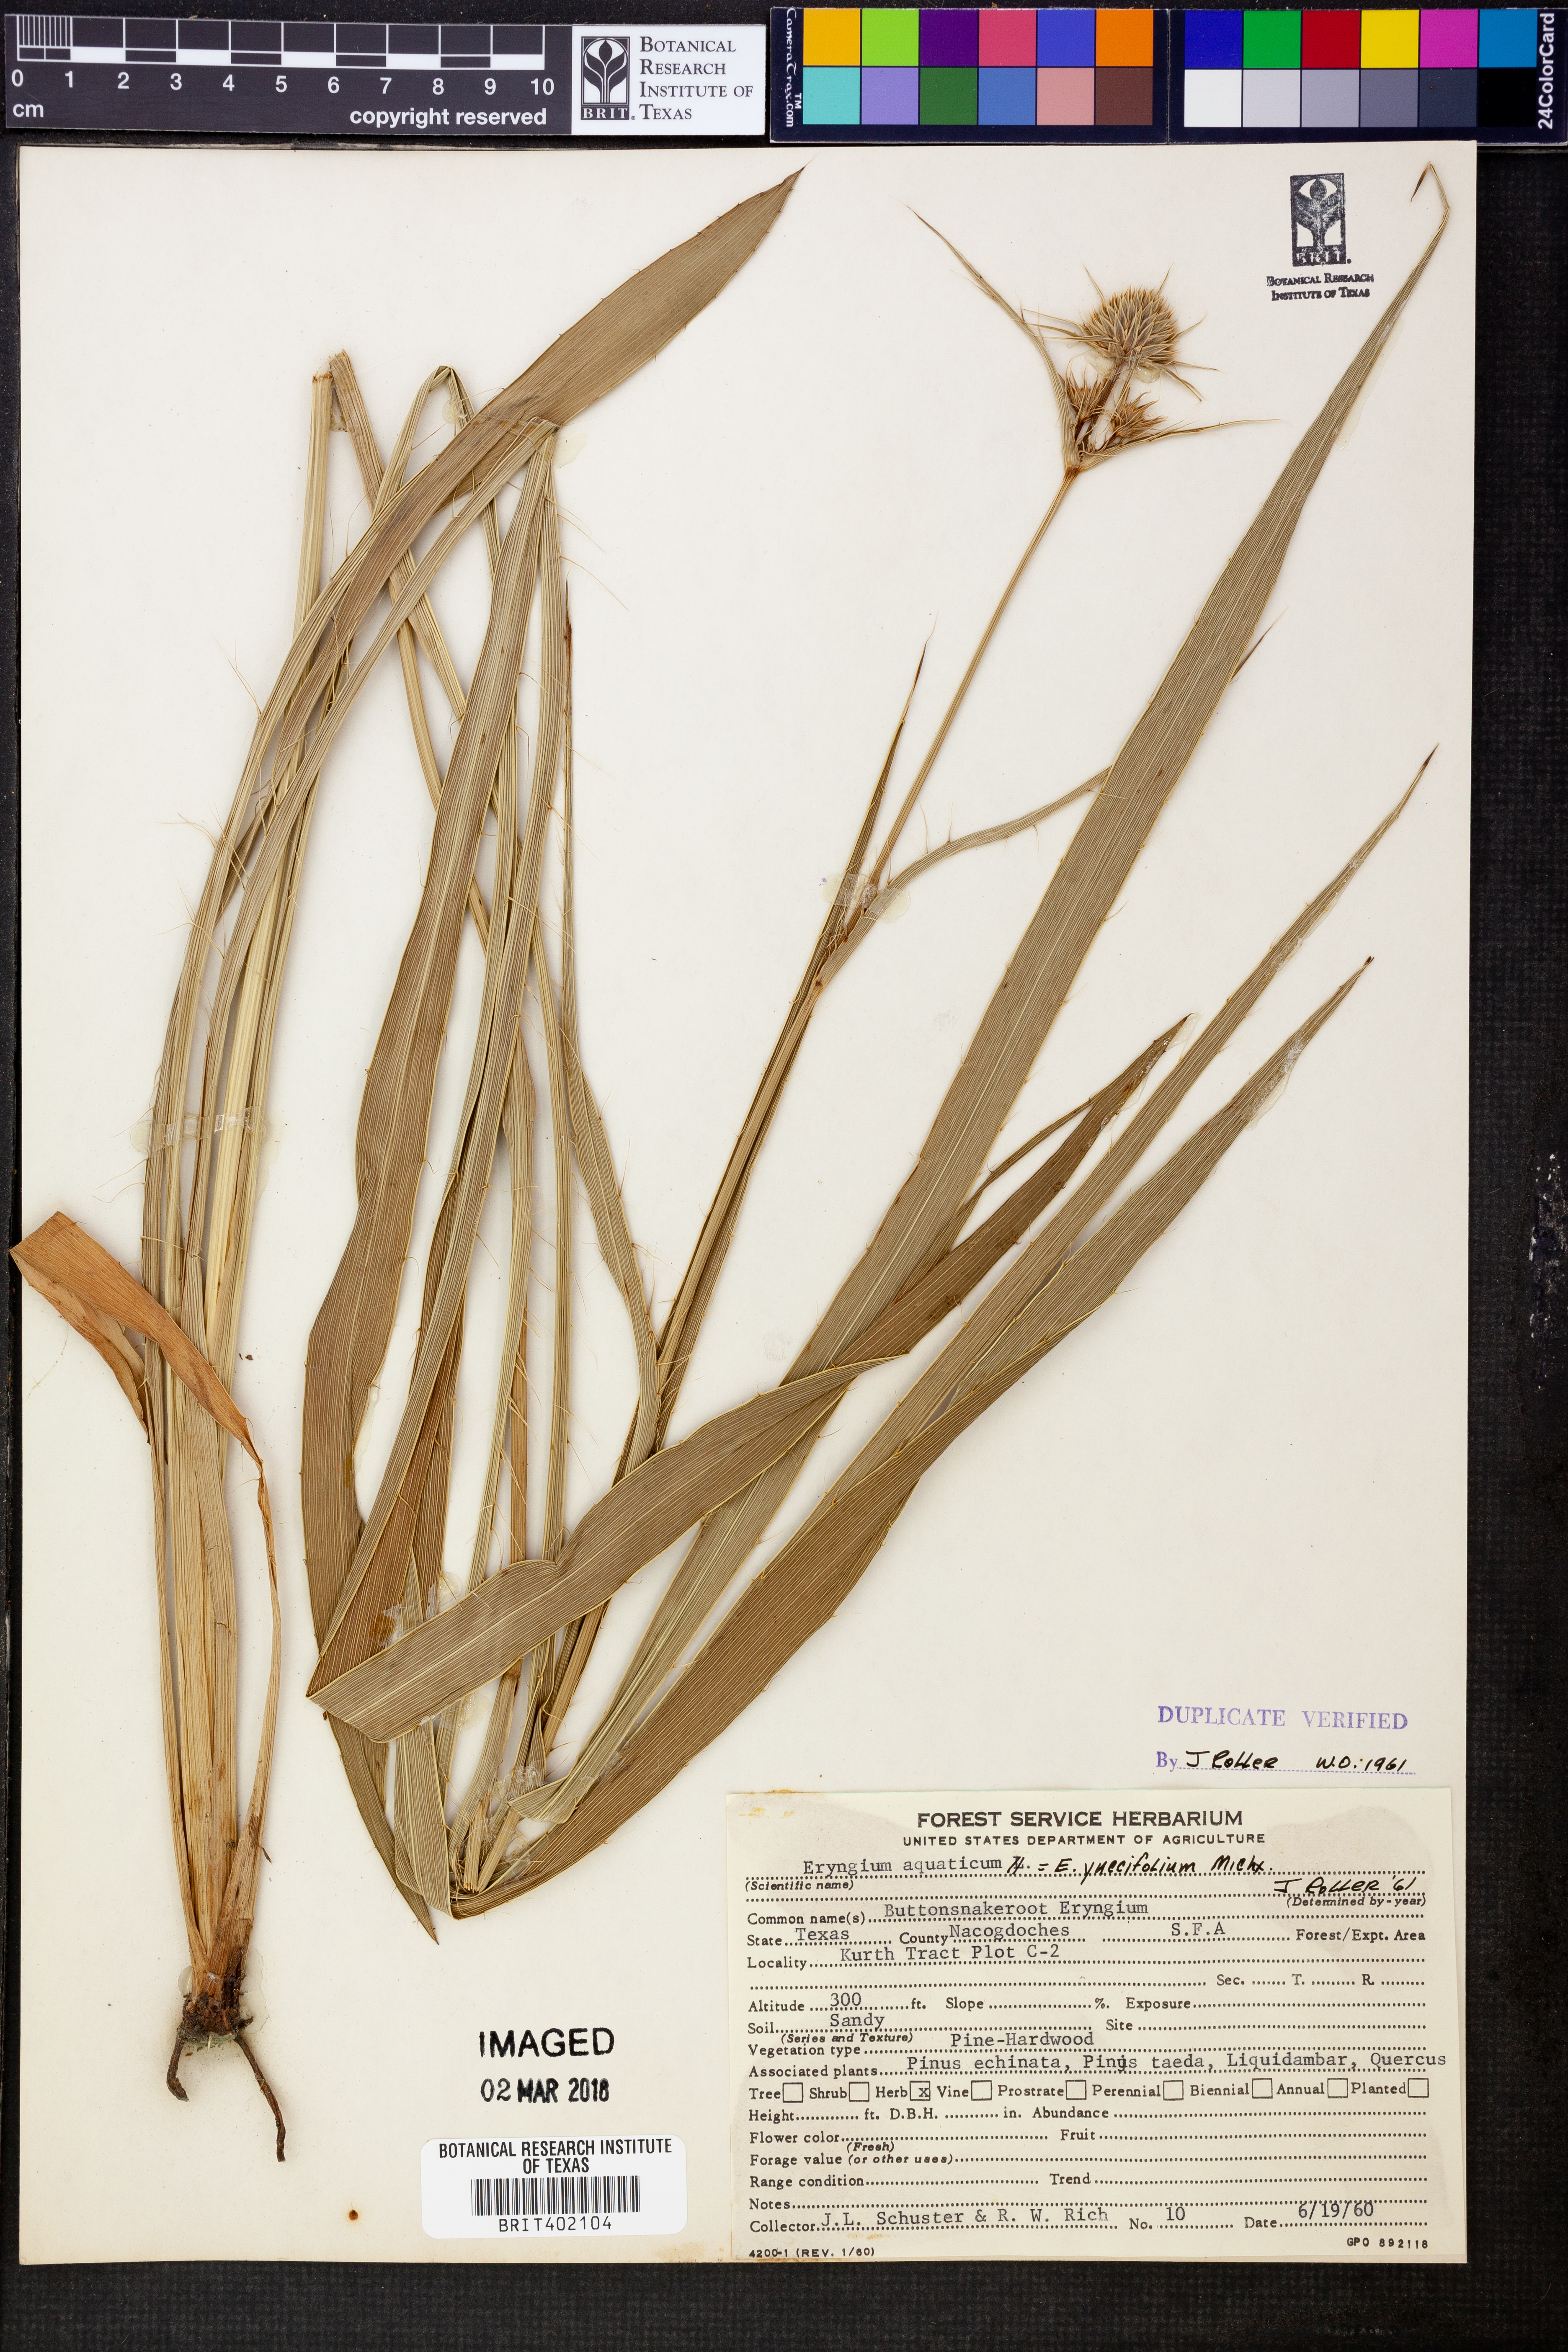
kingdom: Plantae
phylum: Tracheophyta
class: Magnoliopsida
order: Apiales
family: Apiaceae
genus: Eryngium
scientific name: Eryngium yuccifolium
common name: Button eryngo
